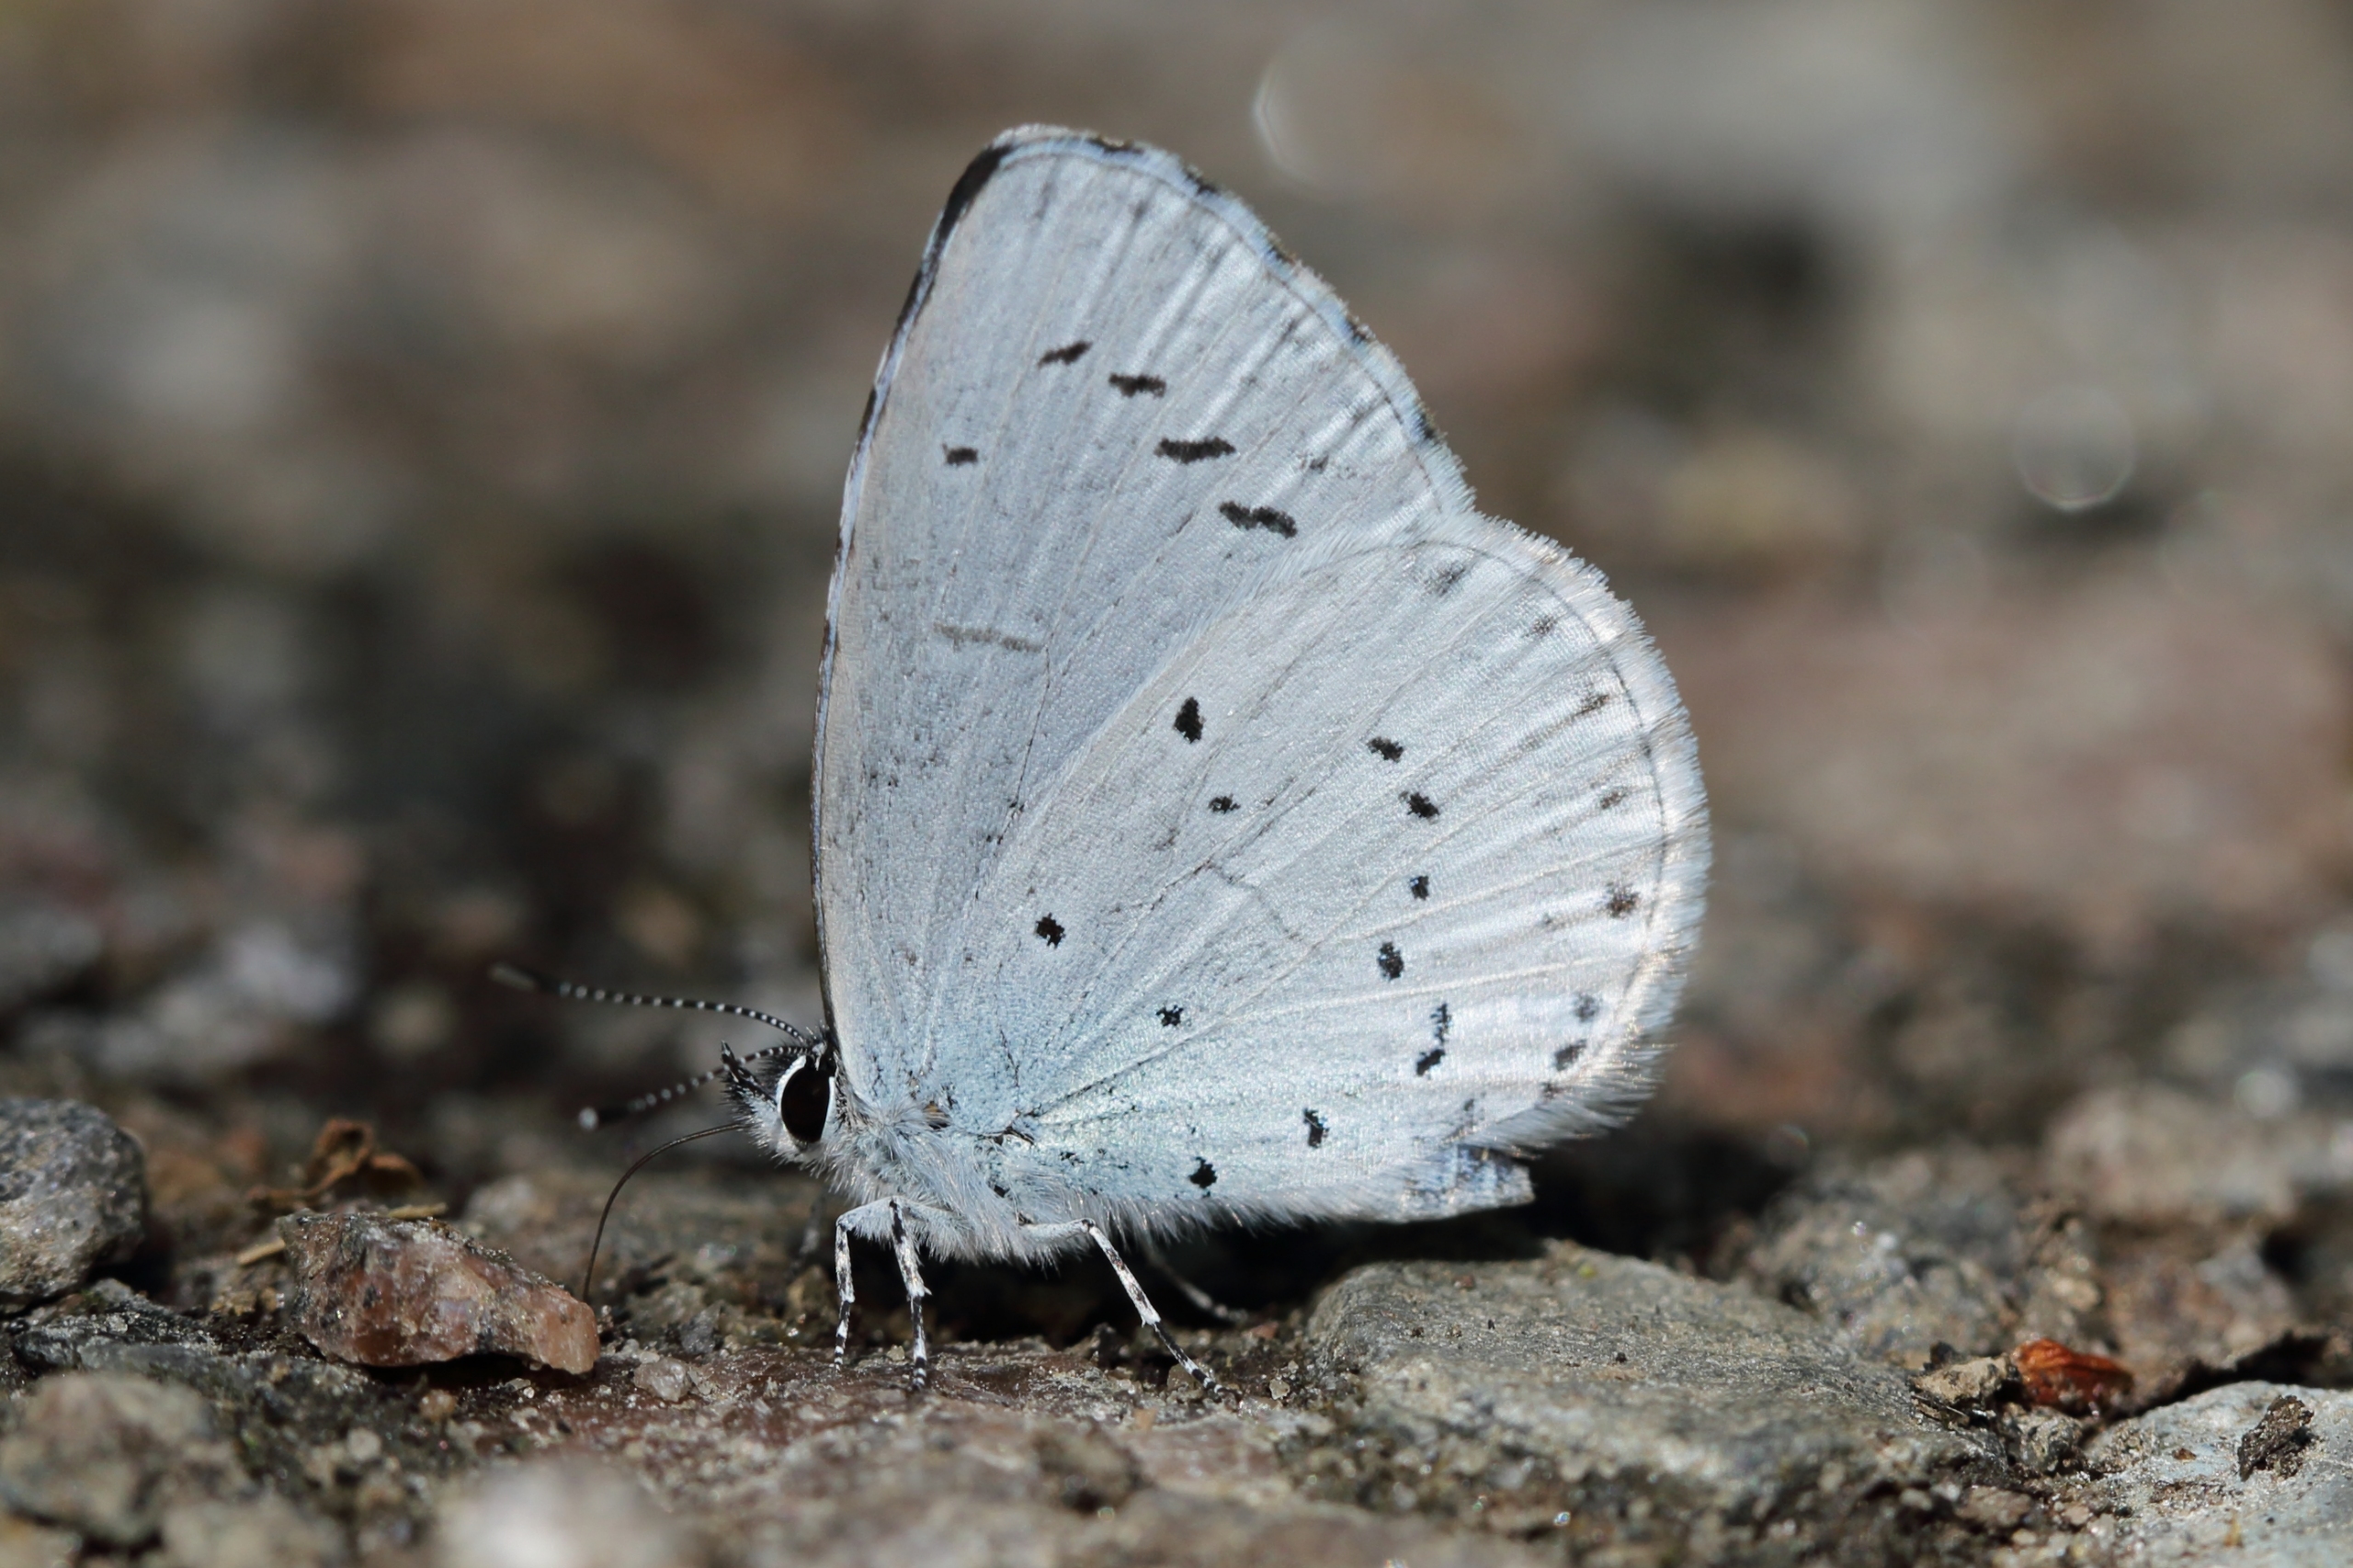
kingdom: Animalia
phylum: Arthropoda
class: Insecta
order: Lepidoptera
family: Lycaenidae
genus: Celastrina
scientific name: Celastrina argiolus
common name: Skovblåfugl
